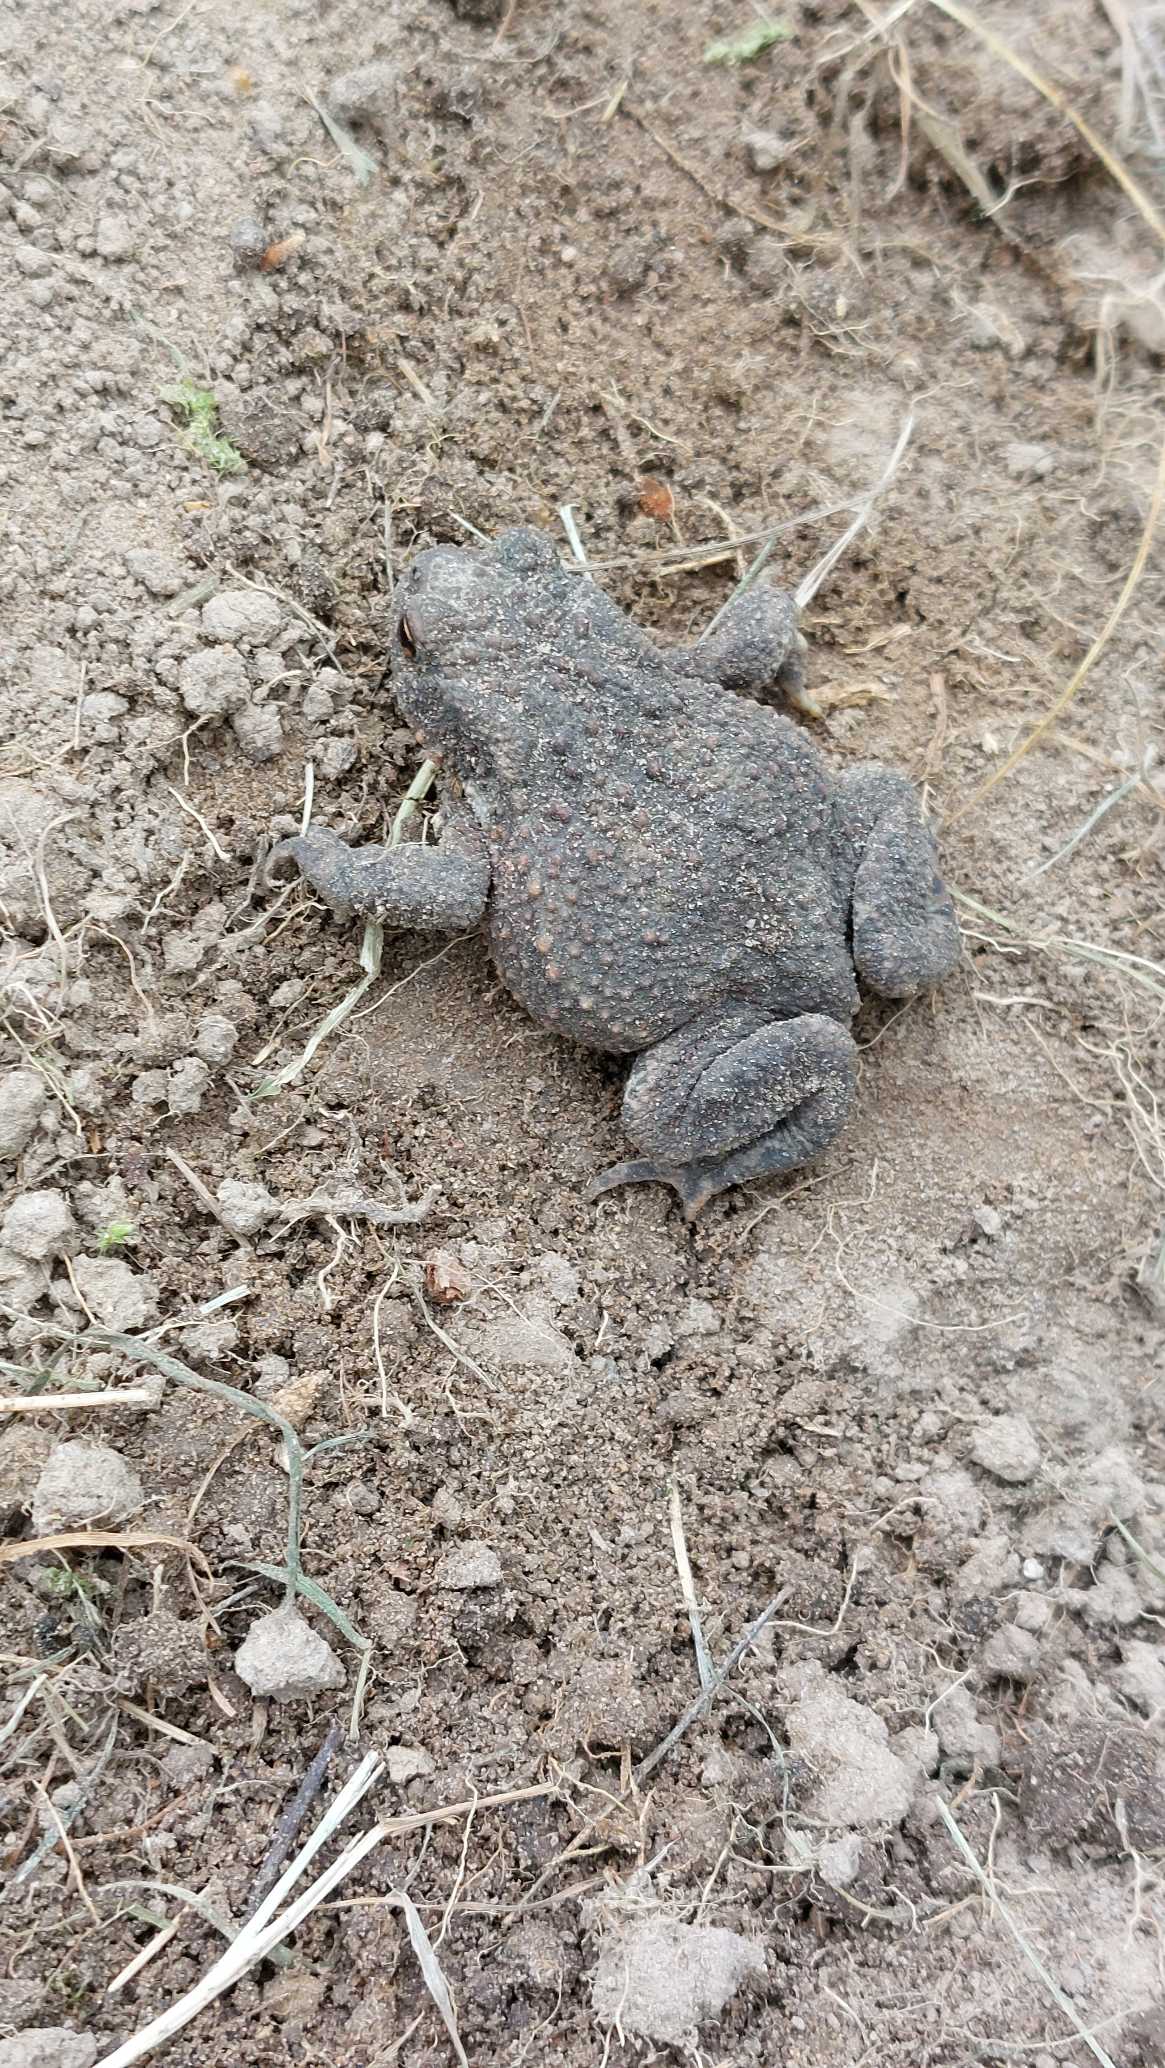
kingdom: Animalia
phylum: Chordata
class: Amphibia
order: Anura
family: Bufonidae
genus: Bufo
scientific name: Bufo bufo
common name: Skrubtudse
